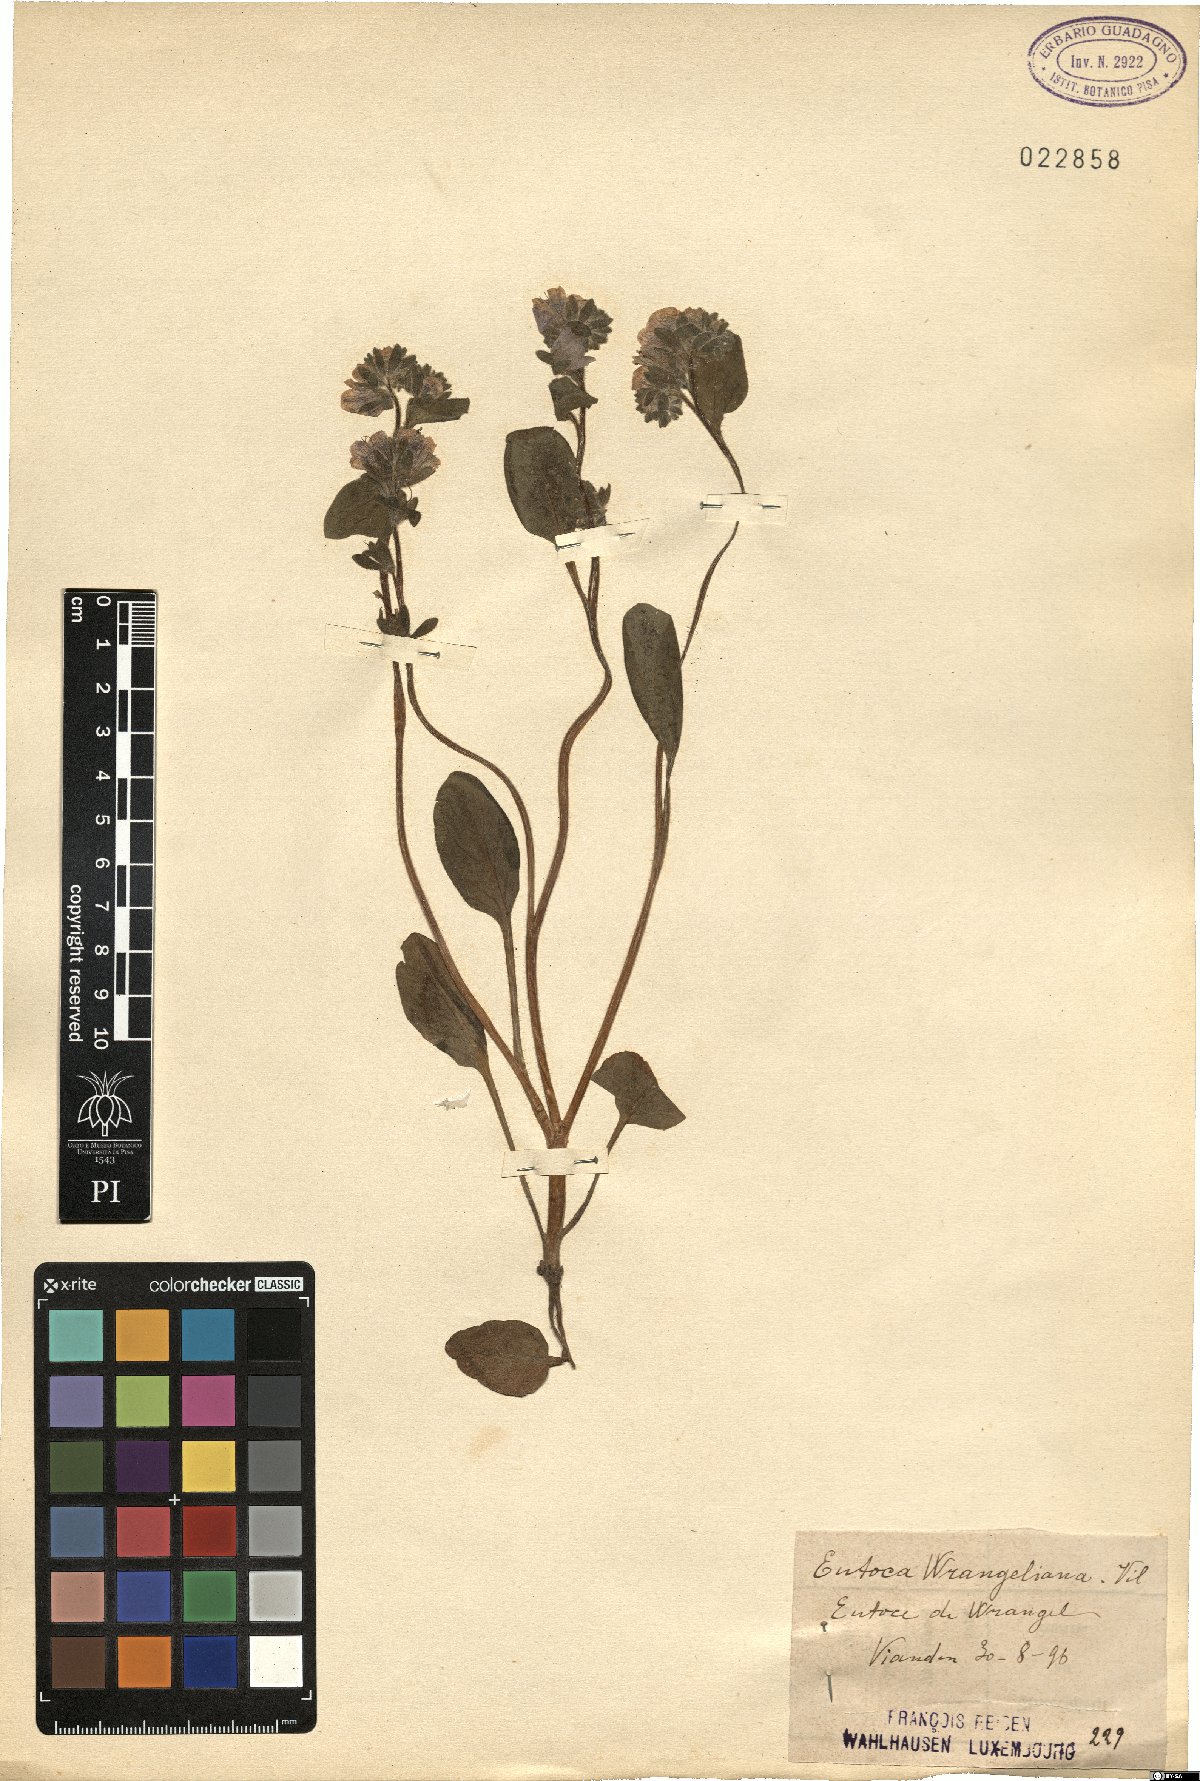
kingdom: Plantae
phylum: Tracheophyta
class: Magnoliopsida
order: Boraginales
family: Hydrophyllaceae
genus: Phacelia
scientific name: Phacelia divaricata
